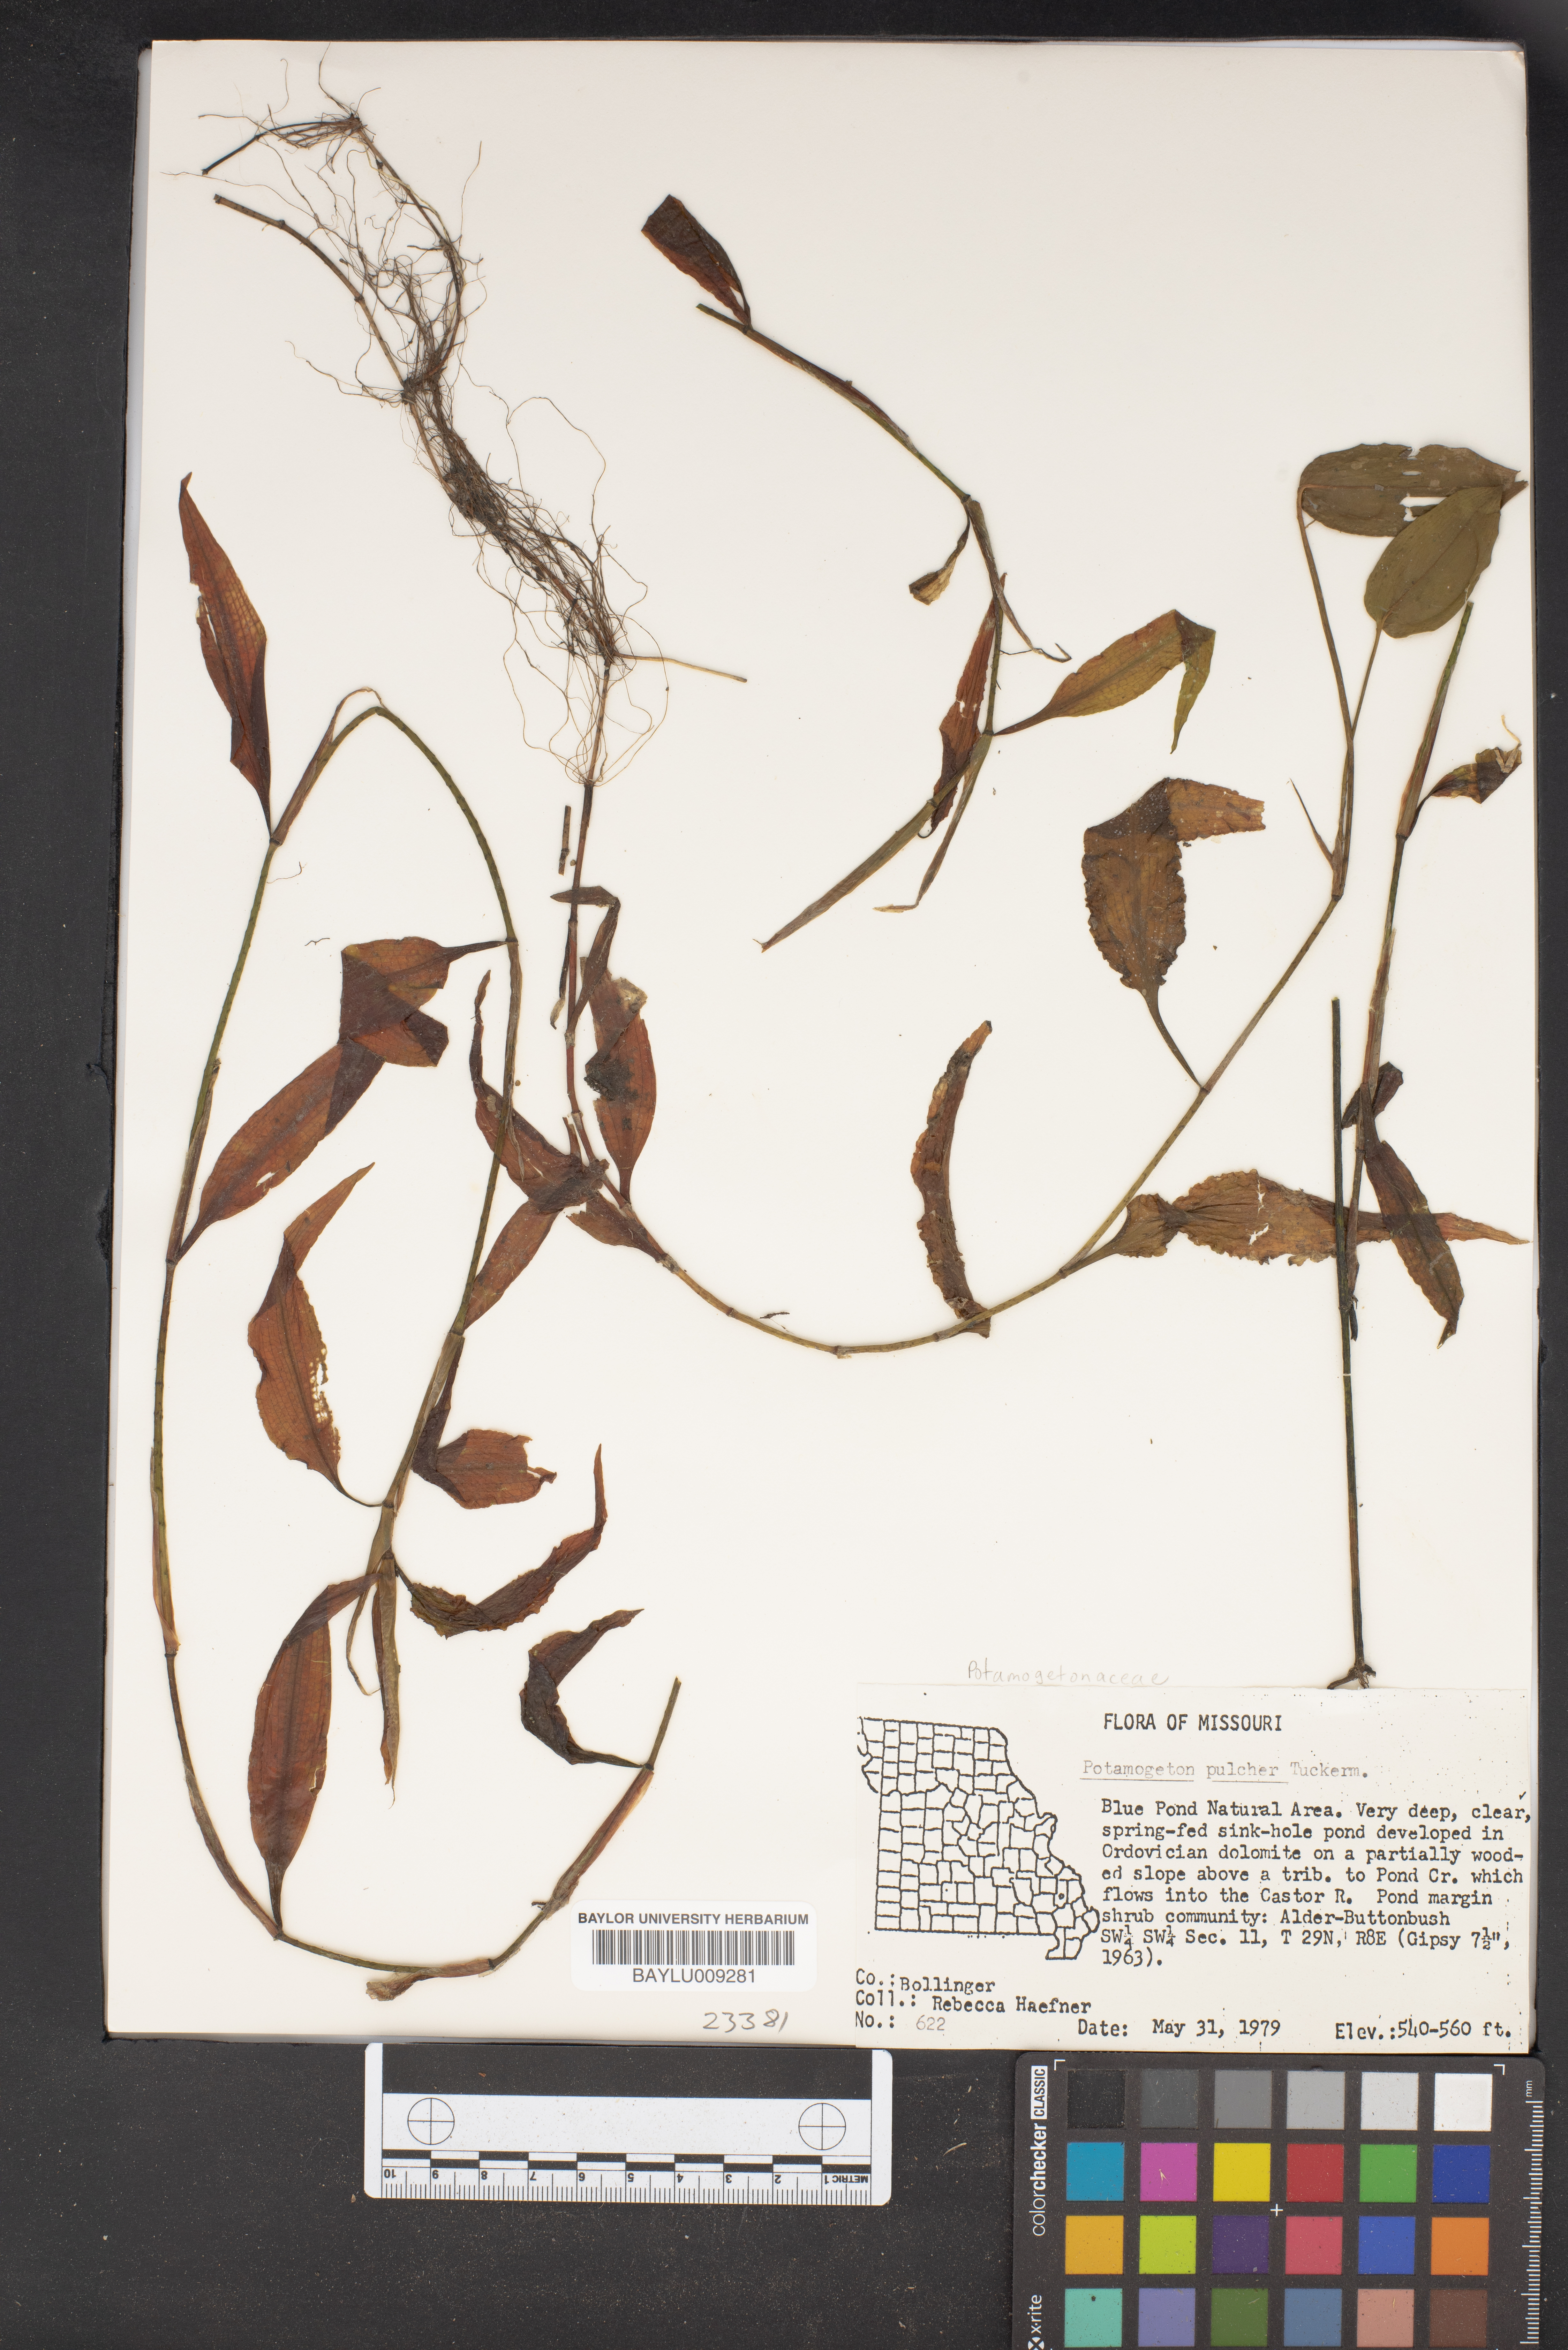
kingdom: Plantae
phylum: Tracheophyta
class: Liliopsida
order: Alismatales
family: Potamogetonaceae
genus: Potamogeton
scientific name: Potamogeton pulcher
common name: Heart-leaved pondweed
